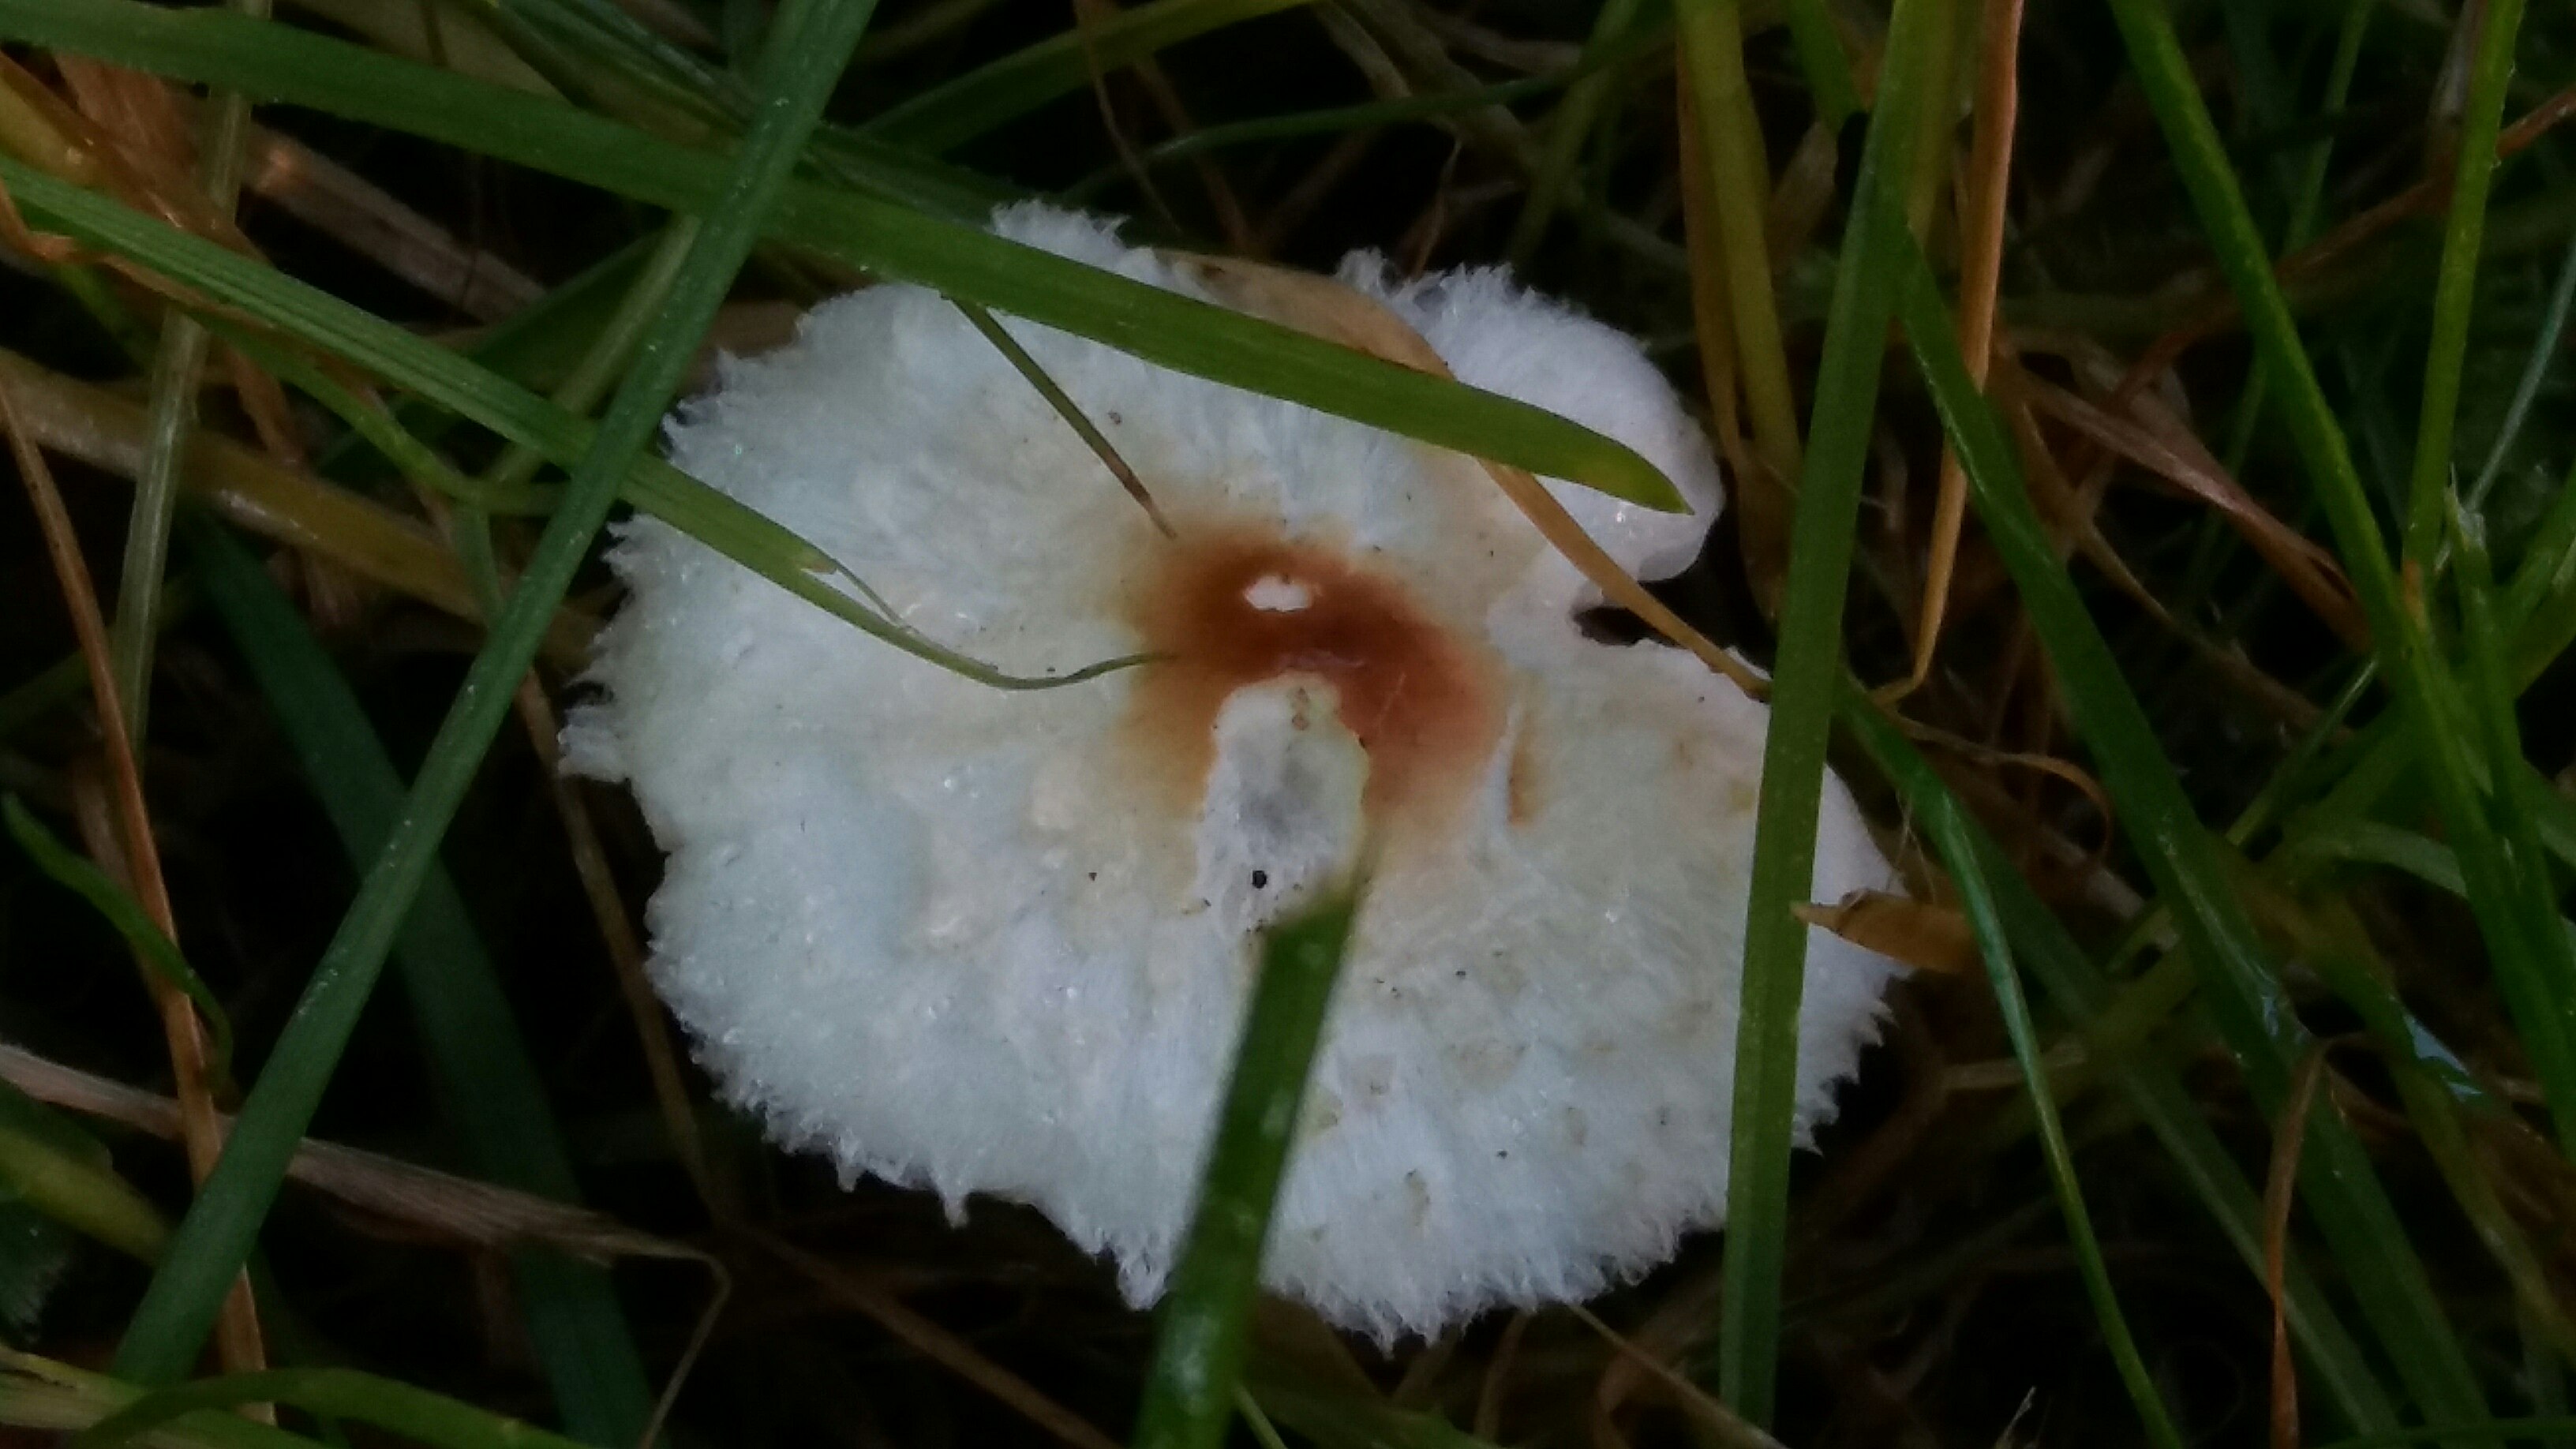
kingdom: Fungi
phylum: Basidiomycota
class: Agaricomycetes
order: Agaricales
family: Agaricaceae
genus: Lepiota
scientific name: Lepiota cristata
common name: stinkende parasolhat
